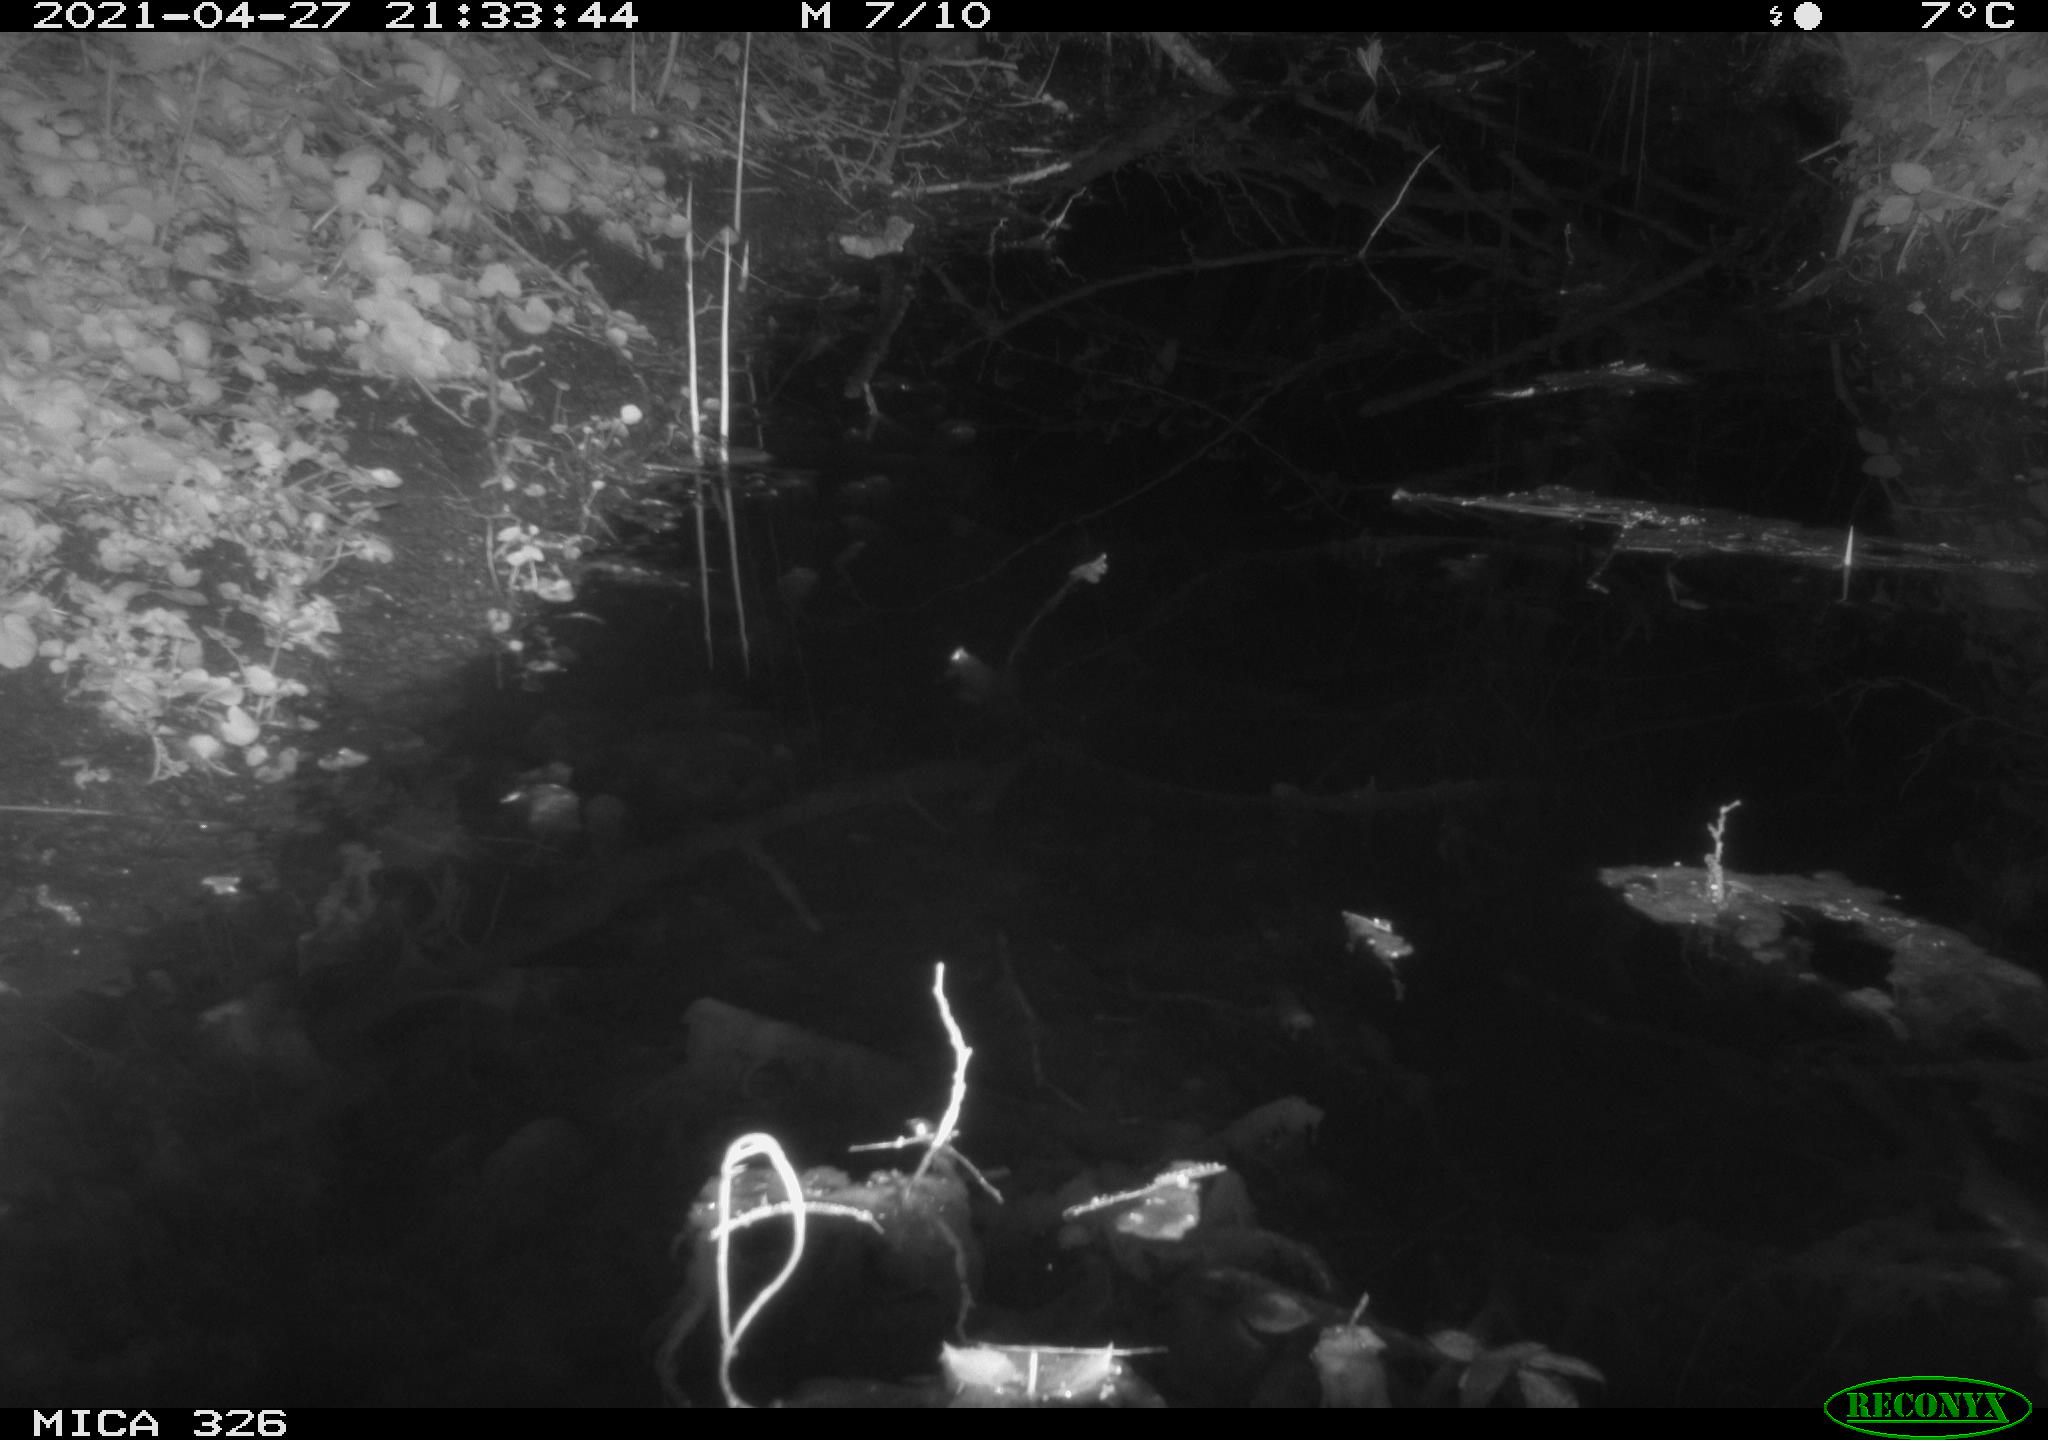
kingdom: Animalia
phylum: Chordata
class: Mammalia
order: Rodentia
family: Muridae
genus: Rattus
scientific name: Rattus norvegicus
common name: Brown rat
